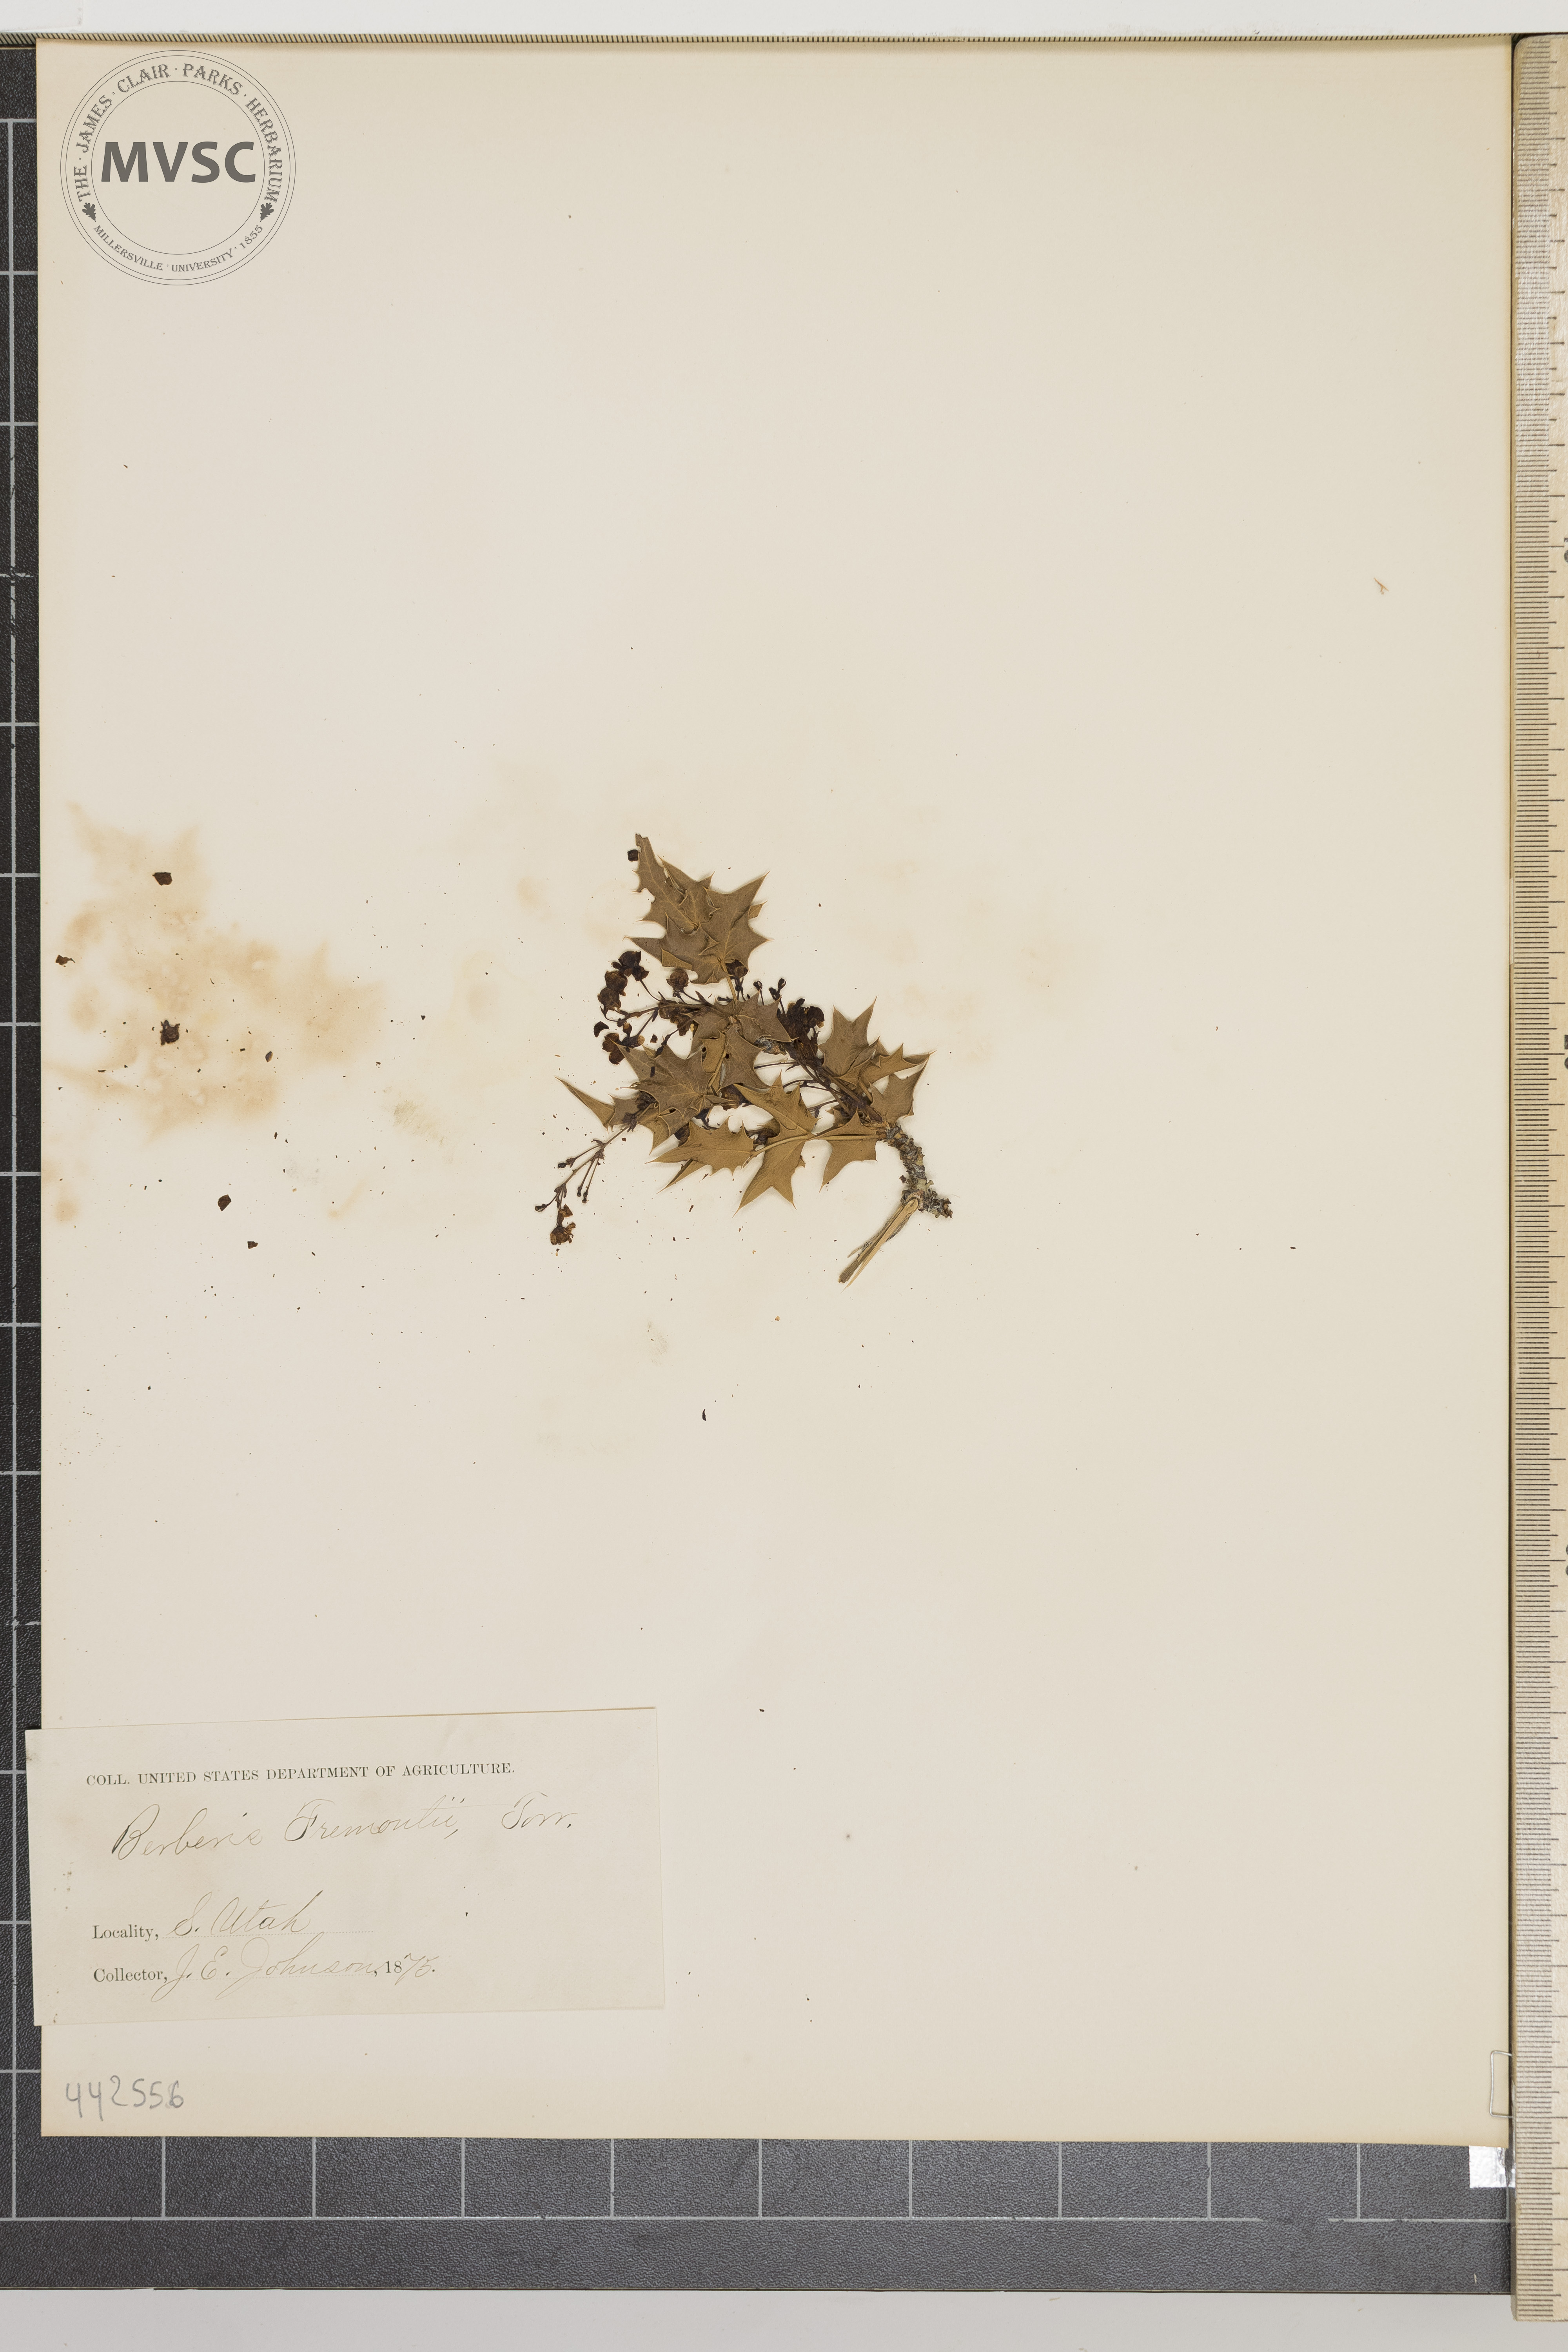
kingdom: Plantae
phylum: Tracheophyta
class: Magnoliopsida
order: Ranunculales
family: Berberidaceae
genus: Alloberberis
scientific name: Alloberberis fremontii
